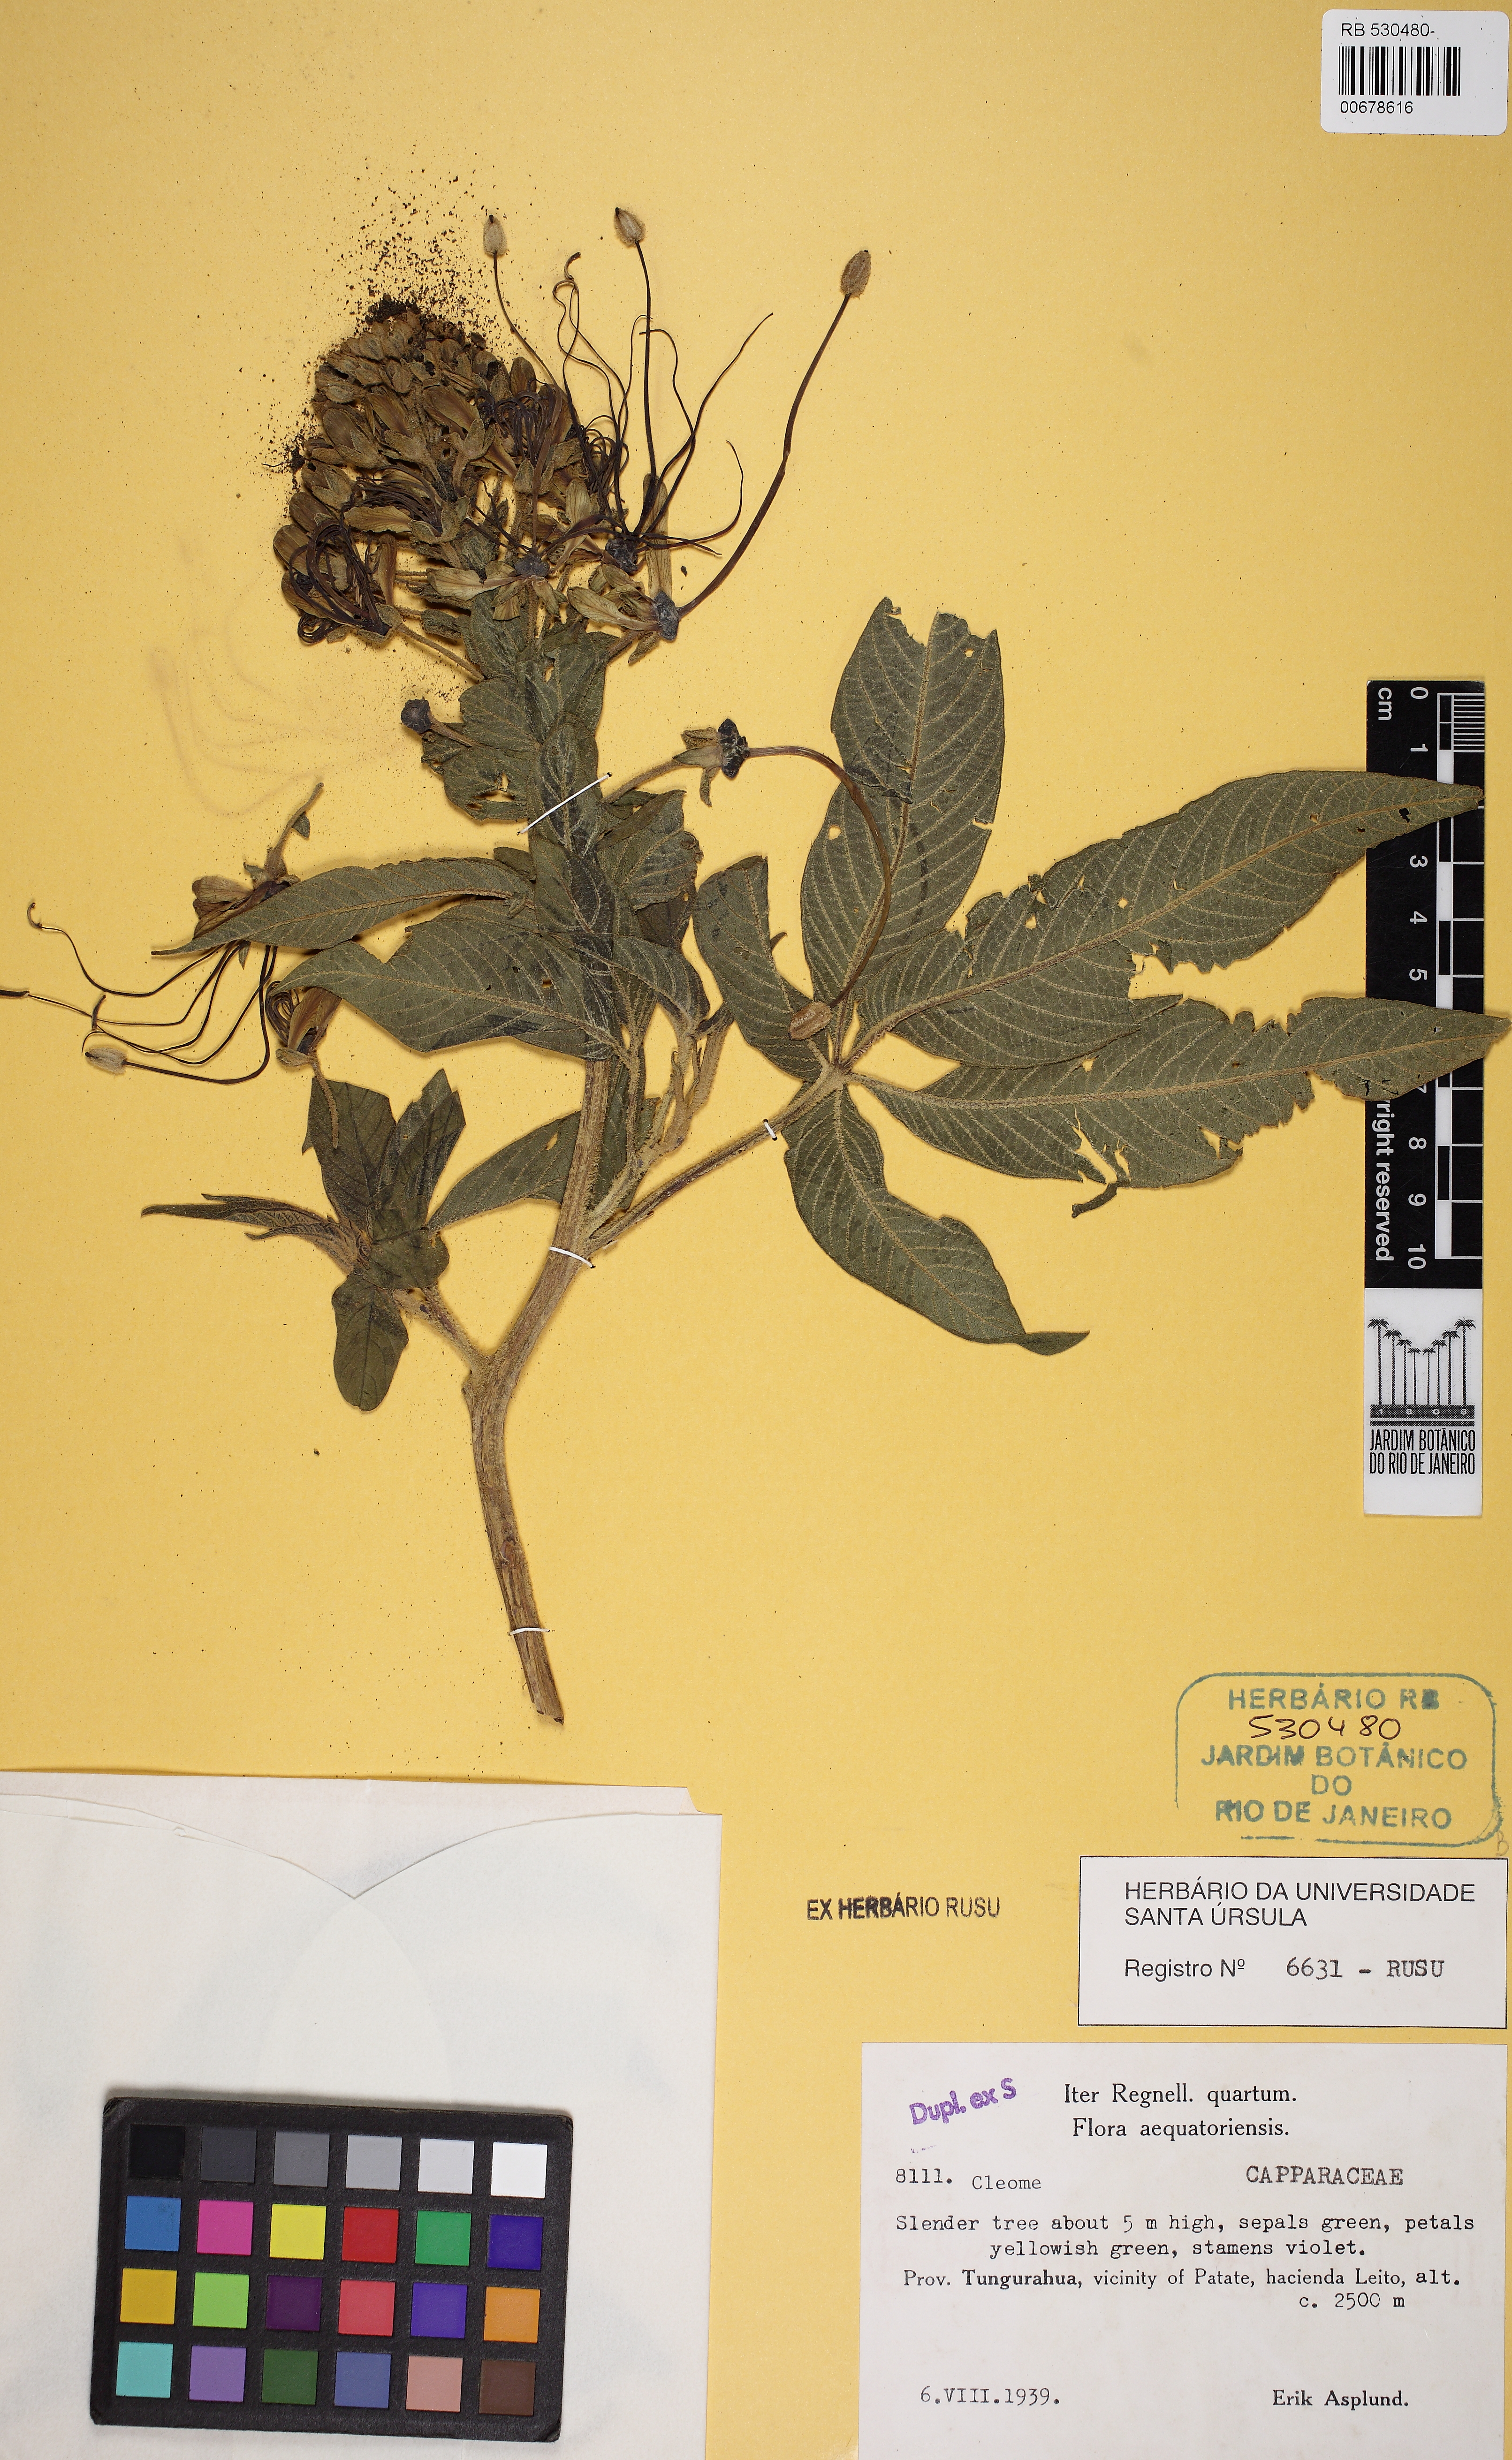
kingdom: Plantae
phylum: Tracheophyta
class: Magnoliopsida
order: Brassicales
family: Cleomaceae
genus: Cleome
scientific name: Cleome
